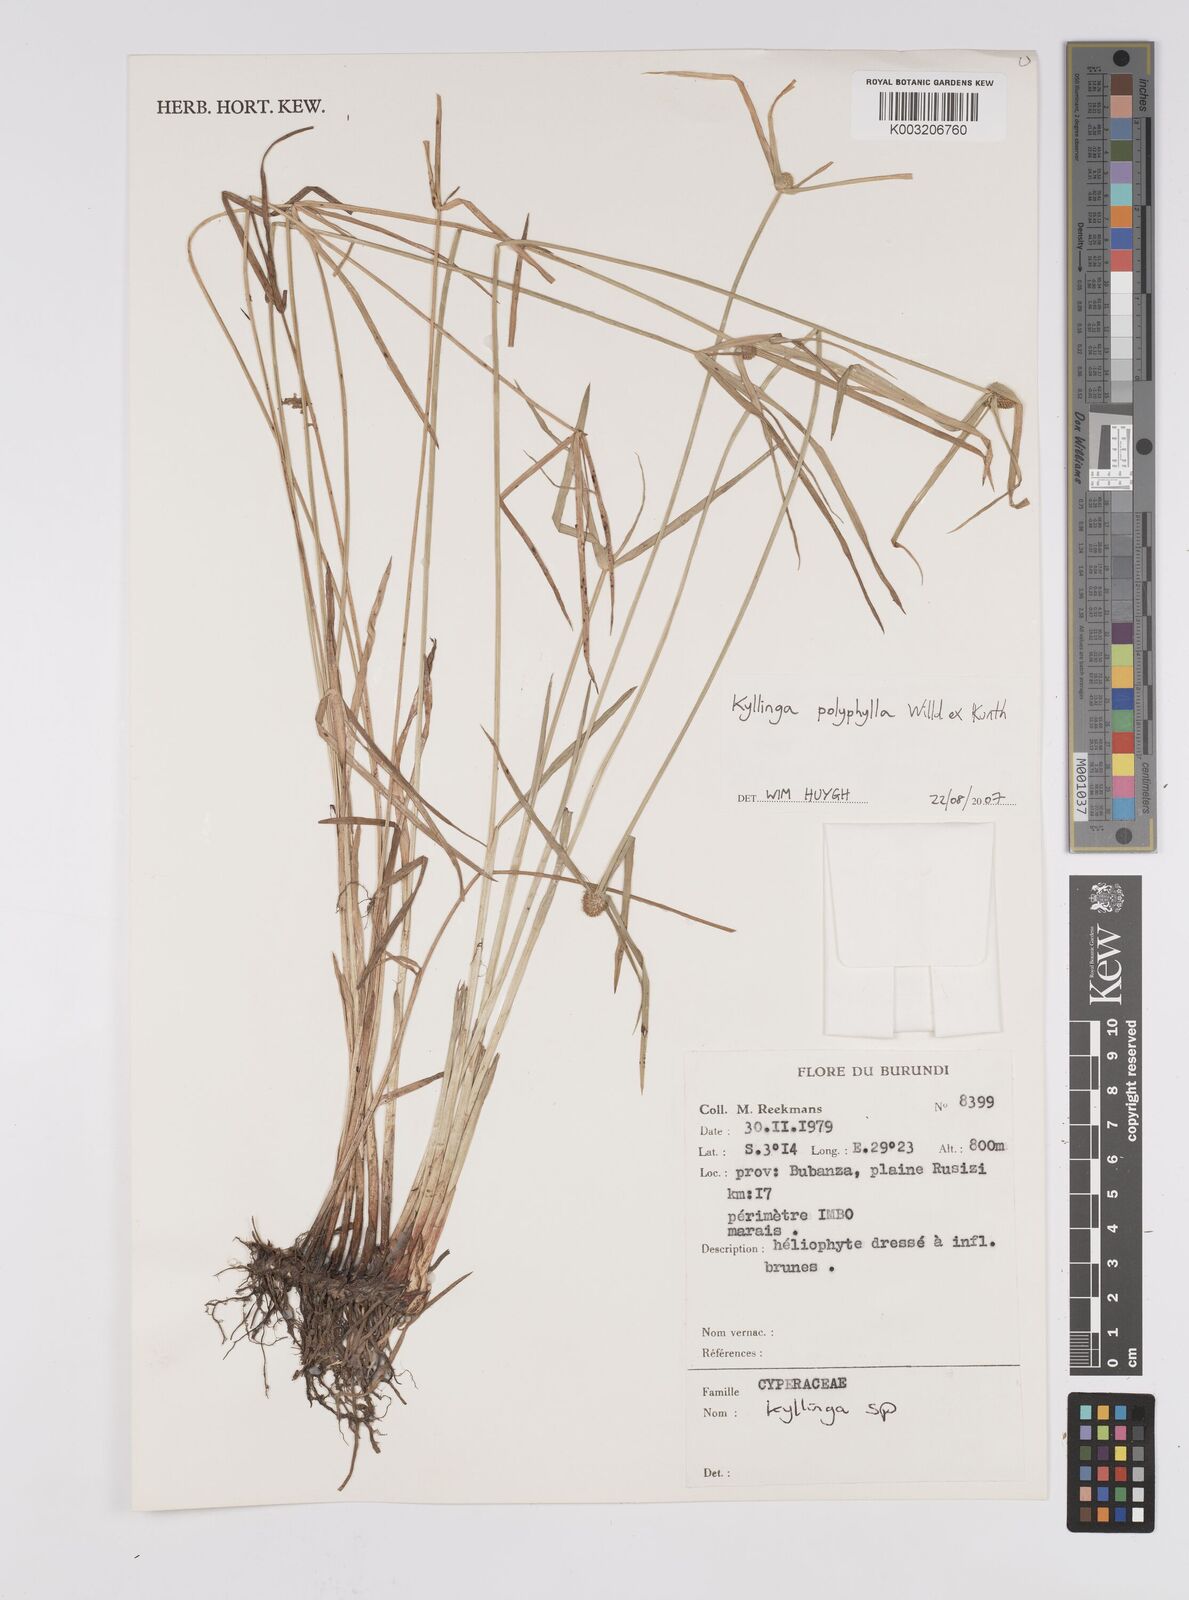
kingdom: Plantae
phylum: Tracheophyta
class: Liliopsida
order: Poales
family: Cyperaceae
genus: Cyperus
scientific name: Cyperus
